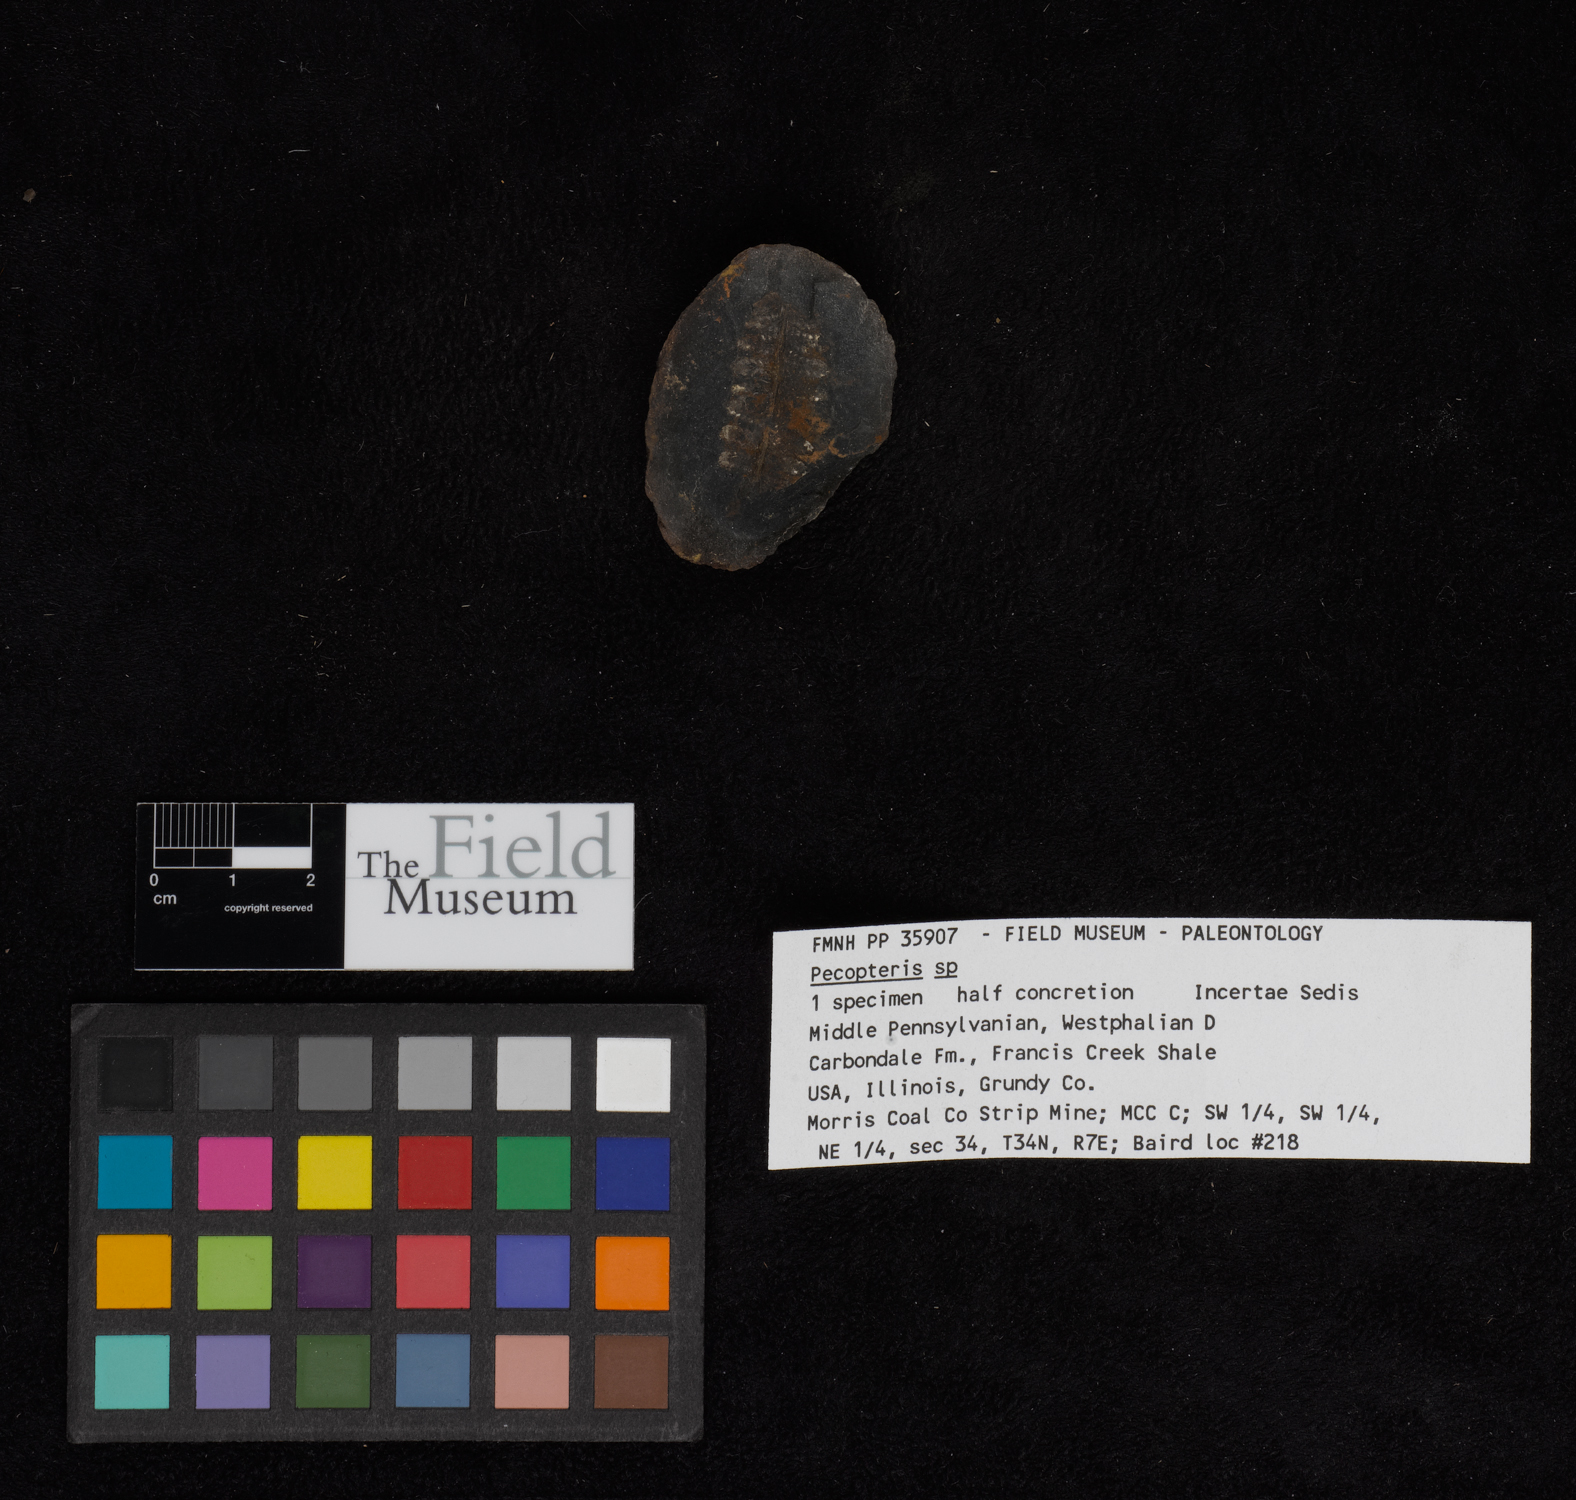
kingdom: Plantae
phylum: Tracheophyta
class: Polypodiopsida
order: Marattiales
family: Asterothecaceae
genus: Pecopteris
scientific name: Pecopteris
